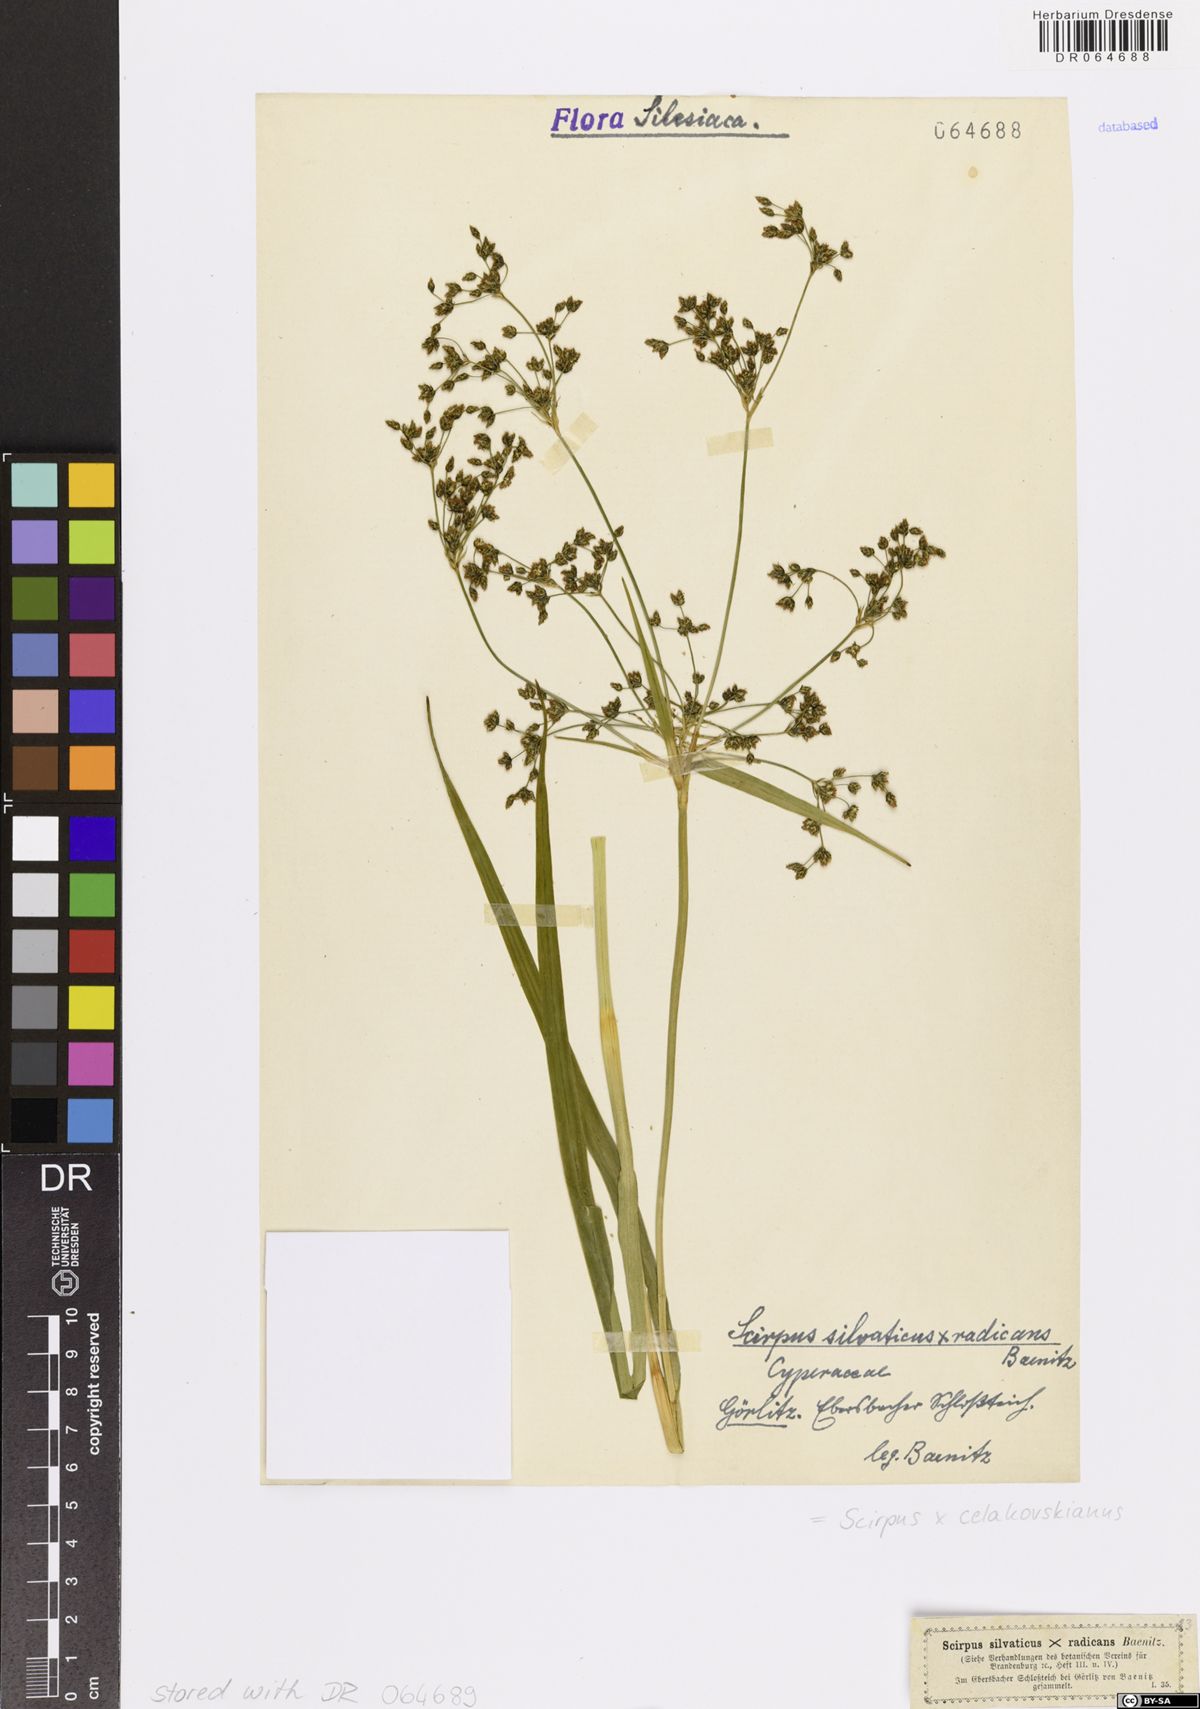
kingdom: Plantae
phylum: Tracheophyta
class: Liliopsida
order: Poales
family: Cyperaceae
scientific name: Cyperaceae
